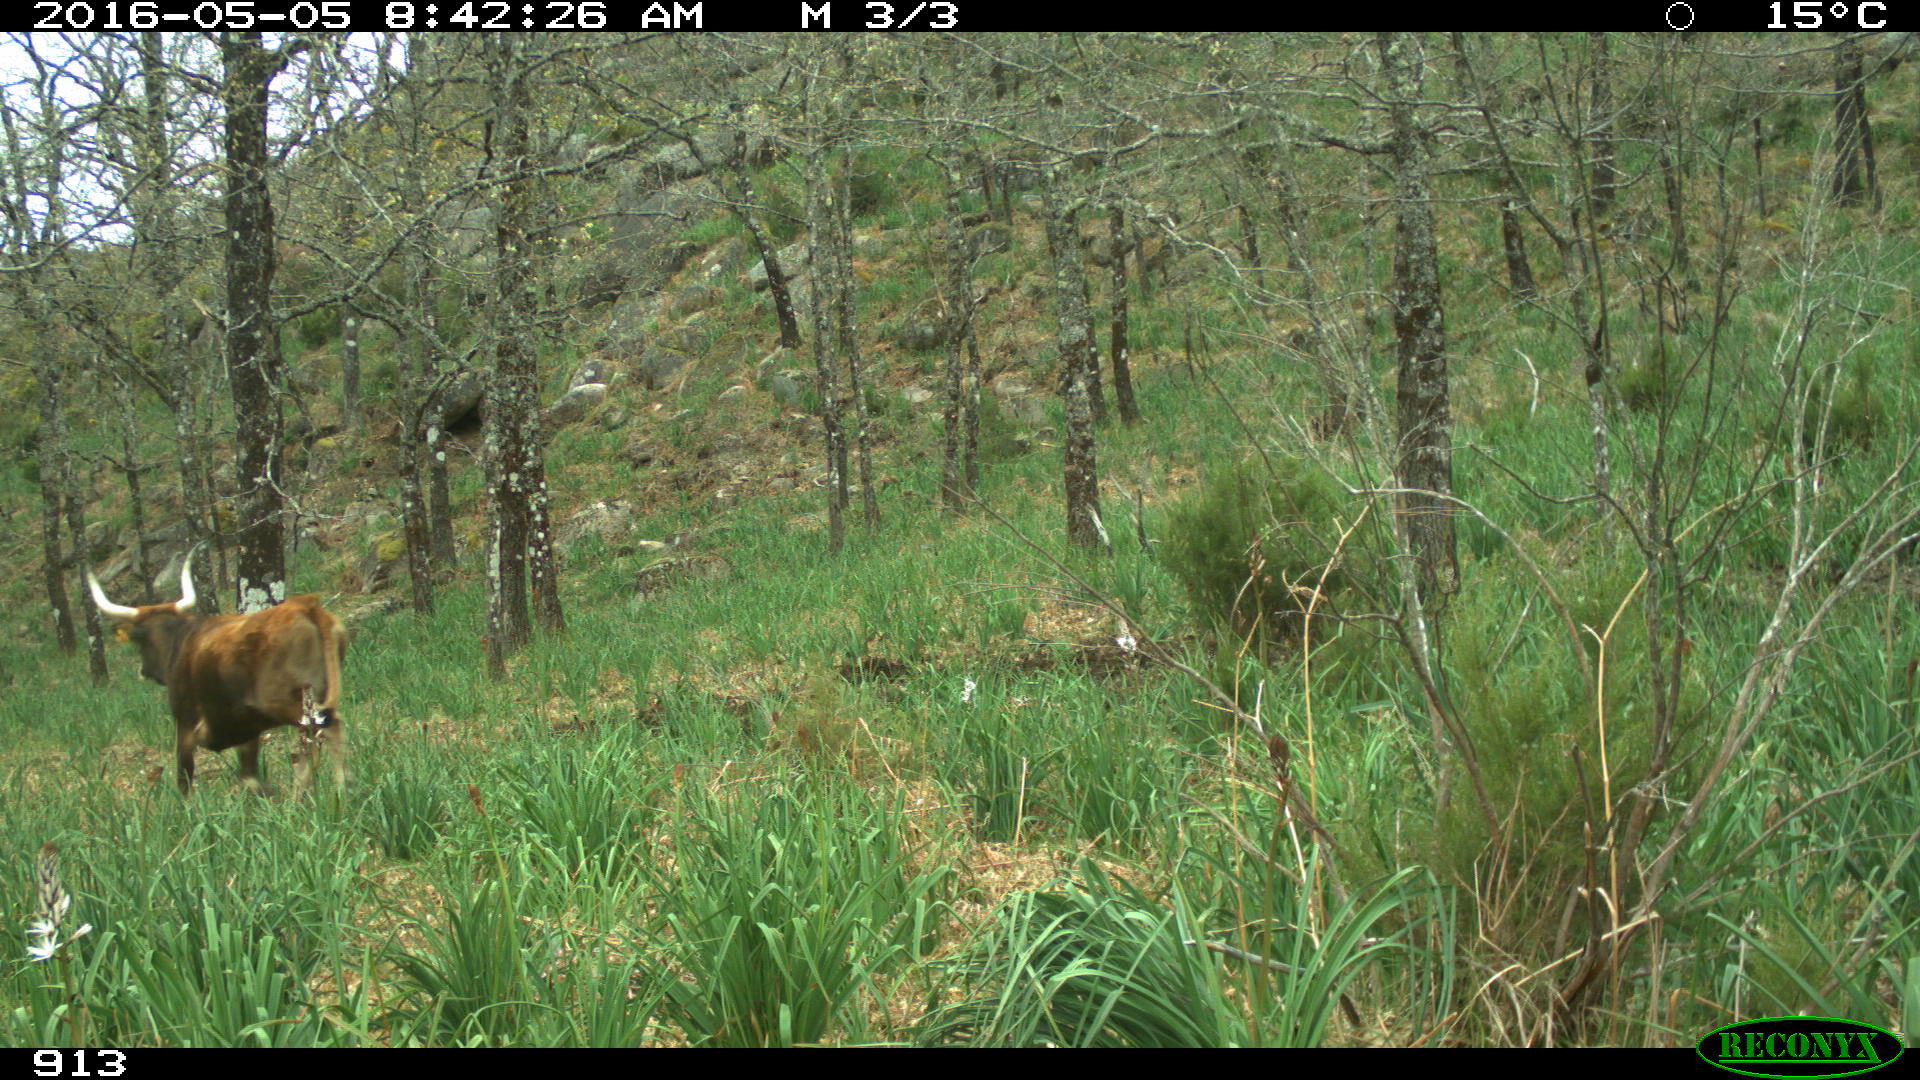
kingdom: Animalia
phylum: Chordata
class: Mammalia
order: Artiodactyla
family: Bovidae
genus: Bos
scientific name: Bos taurus
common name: Domesticated cattle
